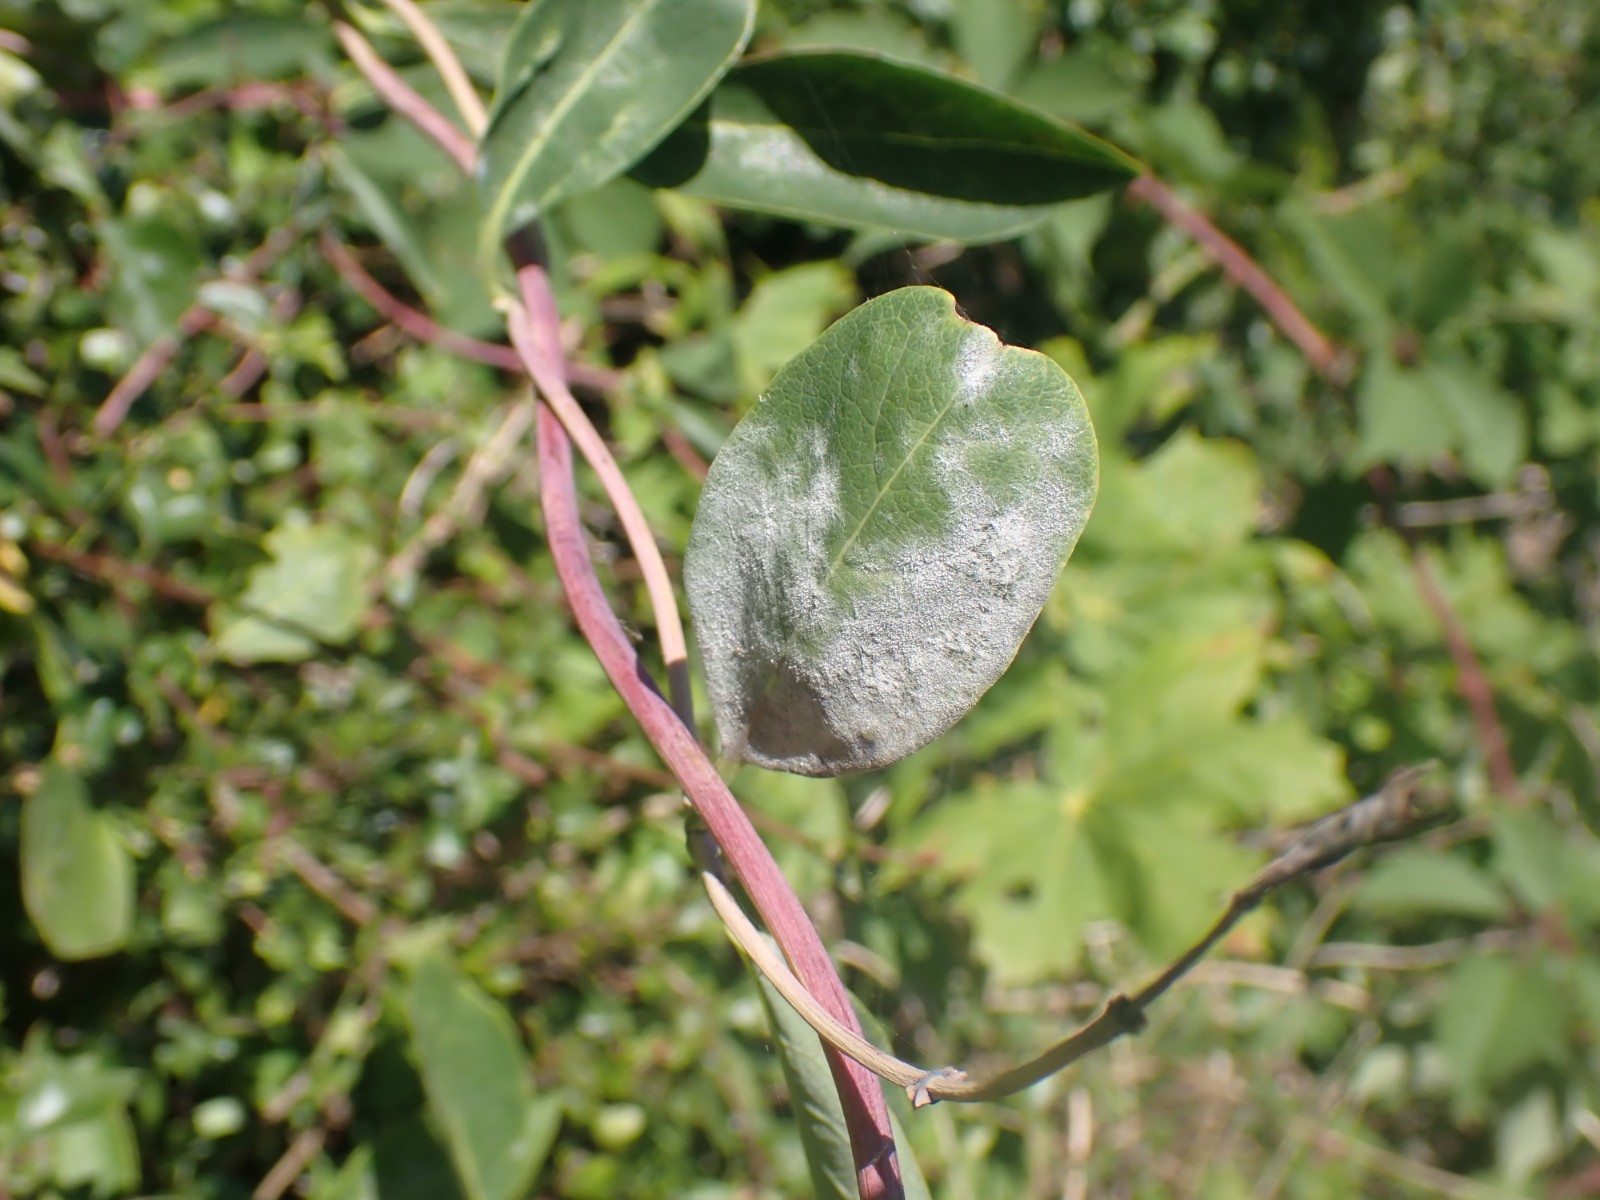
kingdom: Fungi
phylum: Ascomycota
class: Leotiomycetes
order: Helotiales
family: Erysiphaceae
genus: Erysiphe
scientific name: Erysiphe lonicerae
